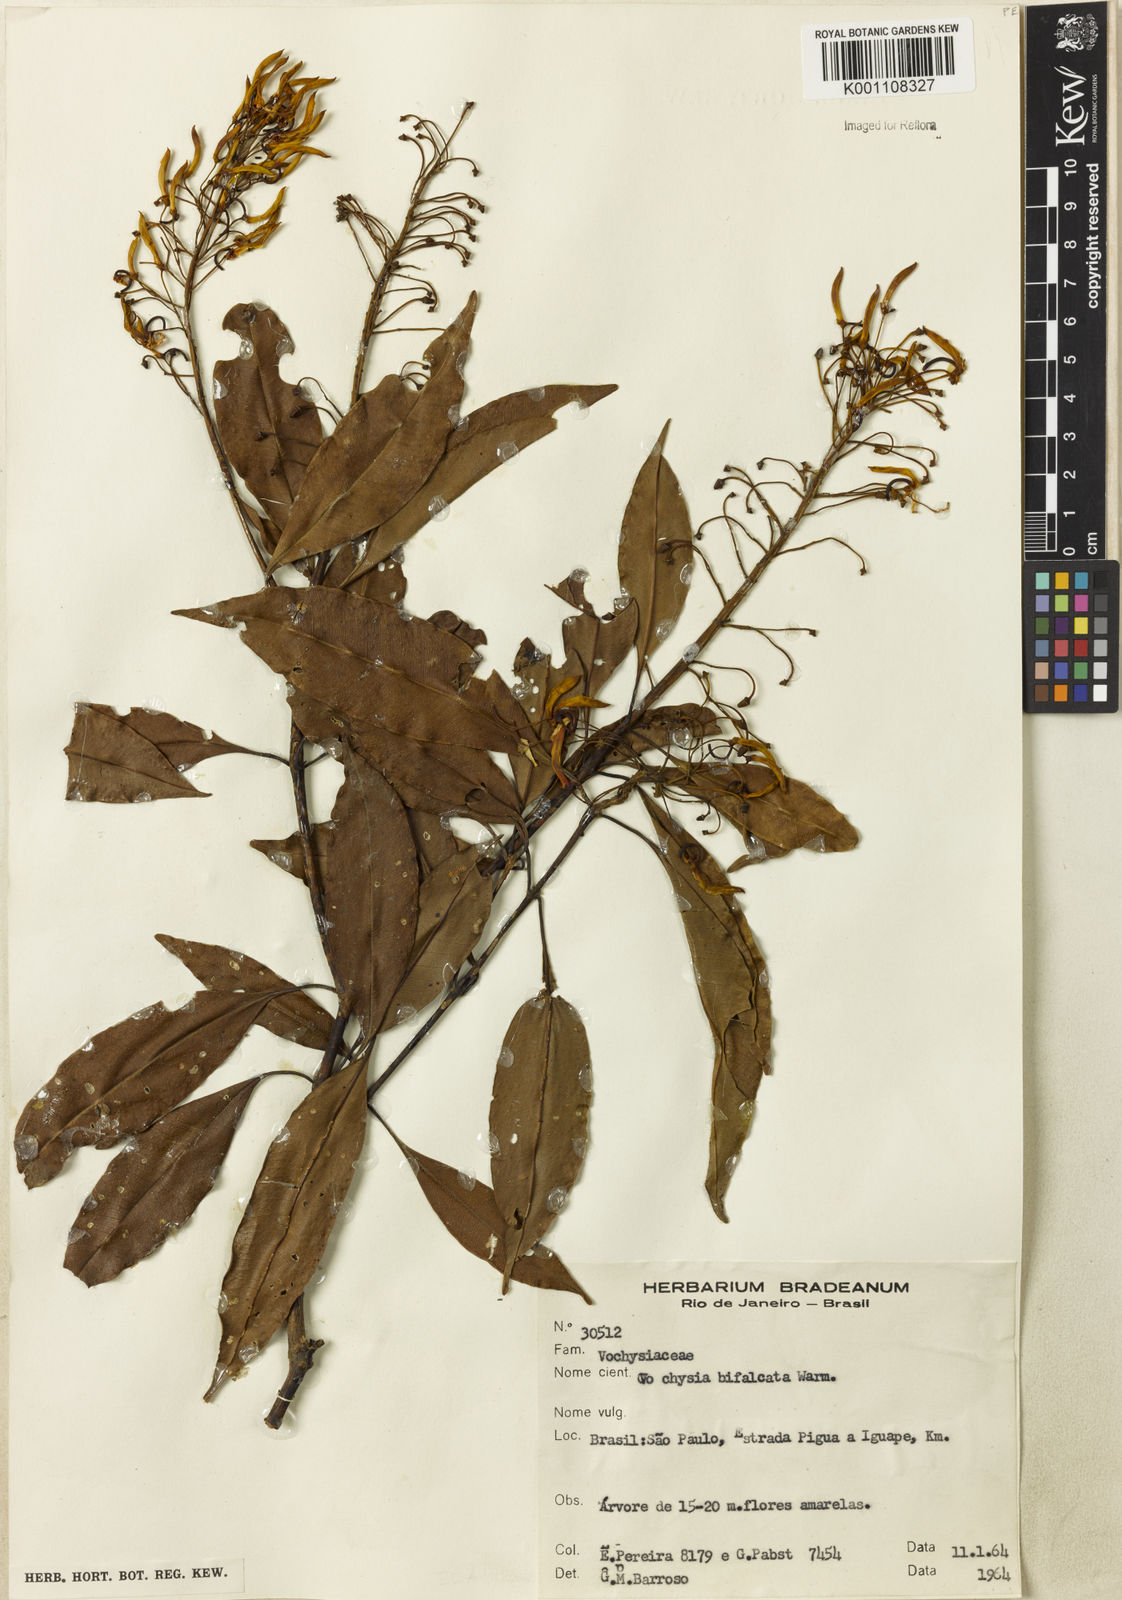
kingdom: Plantae
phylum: Tracheophyta
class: Magnoliopsida
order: Myrtales
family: Vochysiaceae
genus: Vochysia
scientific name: Vochysia bifalcata
